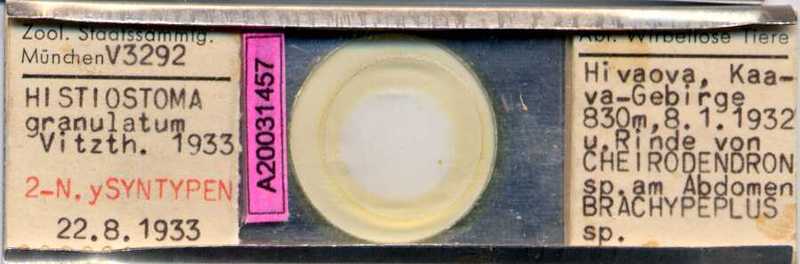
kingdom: Animalia
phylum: Arthropoda
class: Arachnida
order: Sarcoptiformes
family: Histiostomatidae
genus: Histiostoma
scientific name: Histiostoma granulatum
